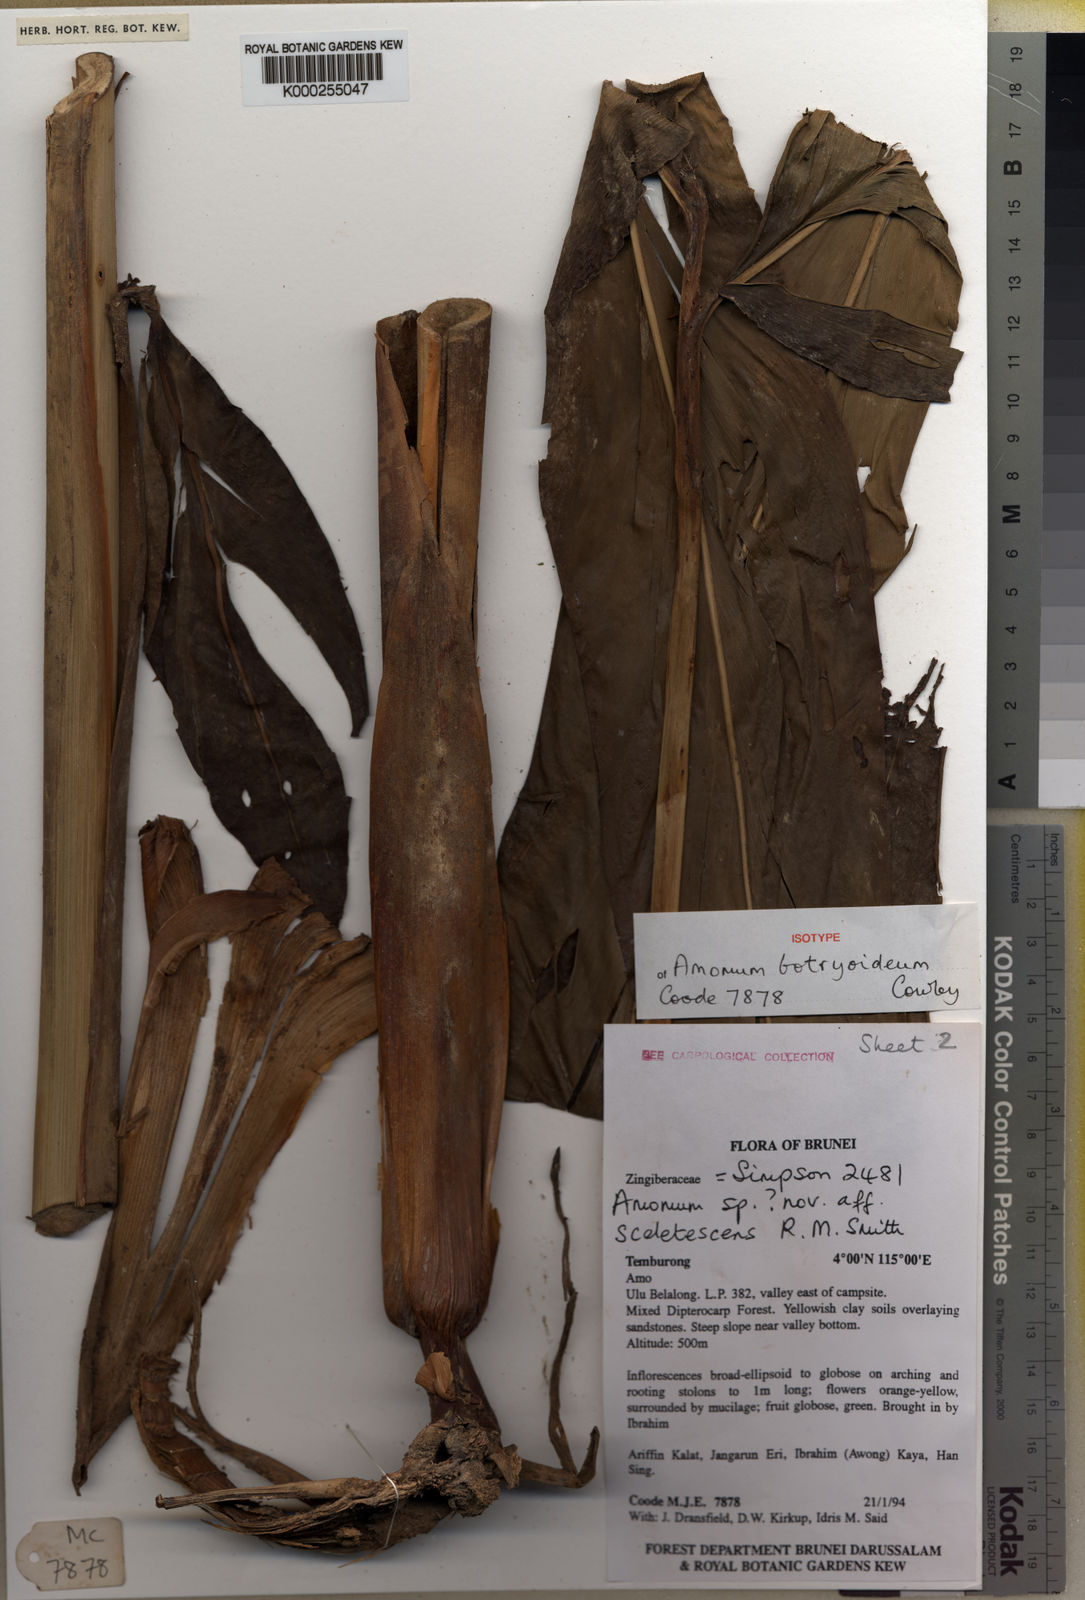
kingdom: Plantae
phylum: Tracheophyta
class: Liliopsida
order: Zingiberales
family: Zingiberaceae
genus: Meistera
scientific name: Meistera botryoidea
